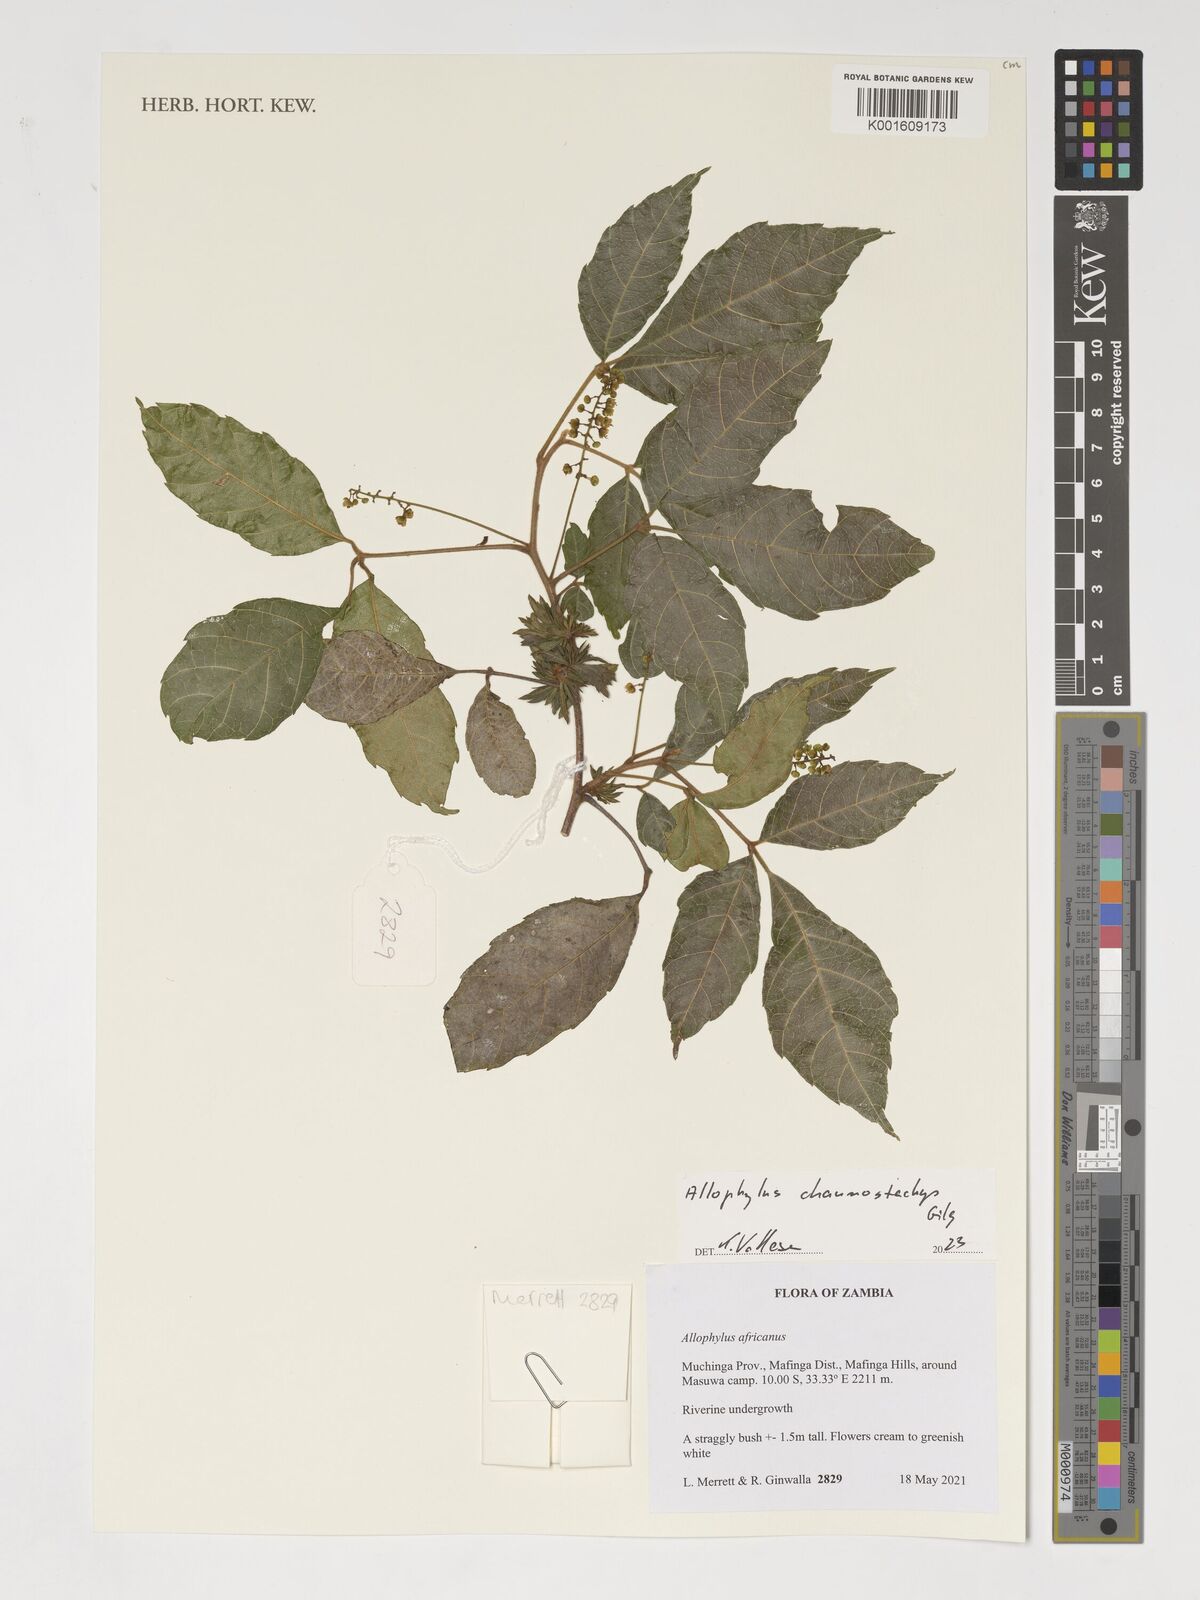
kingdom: Plantae
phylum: Tracheophyta
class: Magnoliopsida
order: Sapindales
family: Sapindaceae
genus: Allophylus
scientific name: Allophylus africanus
